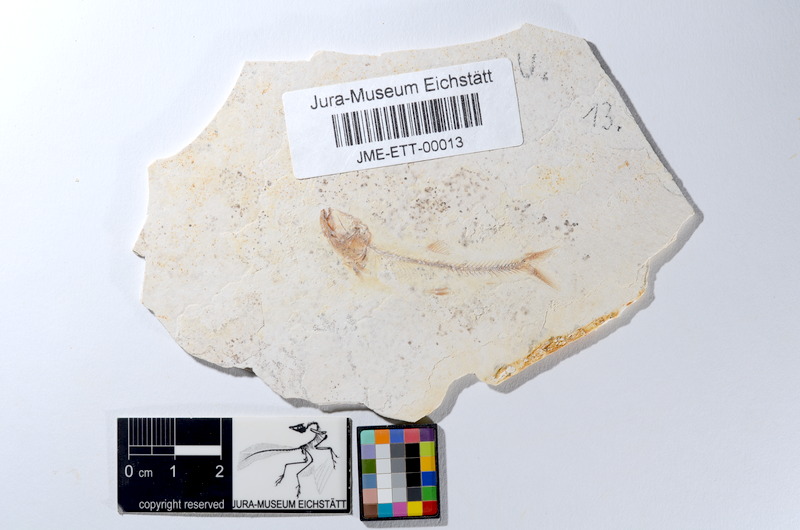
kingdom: Animalia
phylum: Chordata
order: Salmoniformes
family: Orthogonikleithridae
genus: Orthogonikleithrus
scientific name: Orthogonikleithrus hoelli
